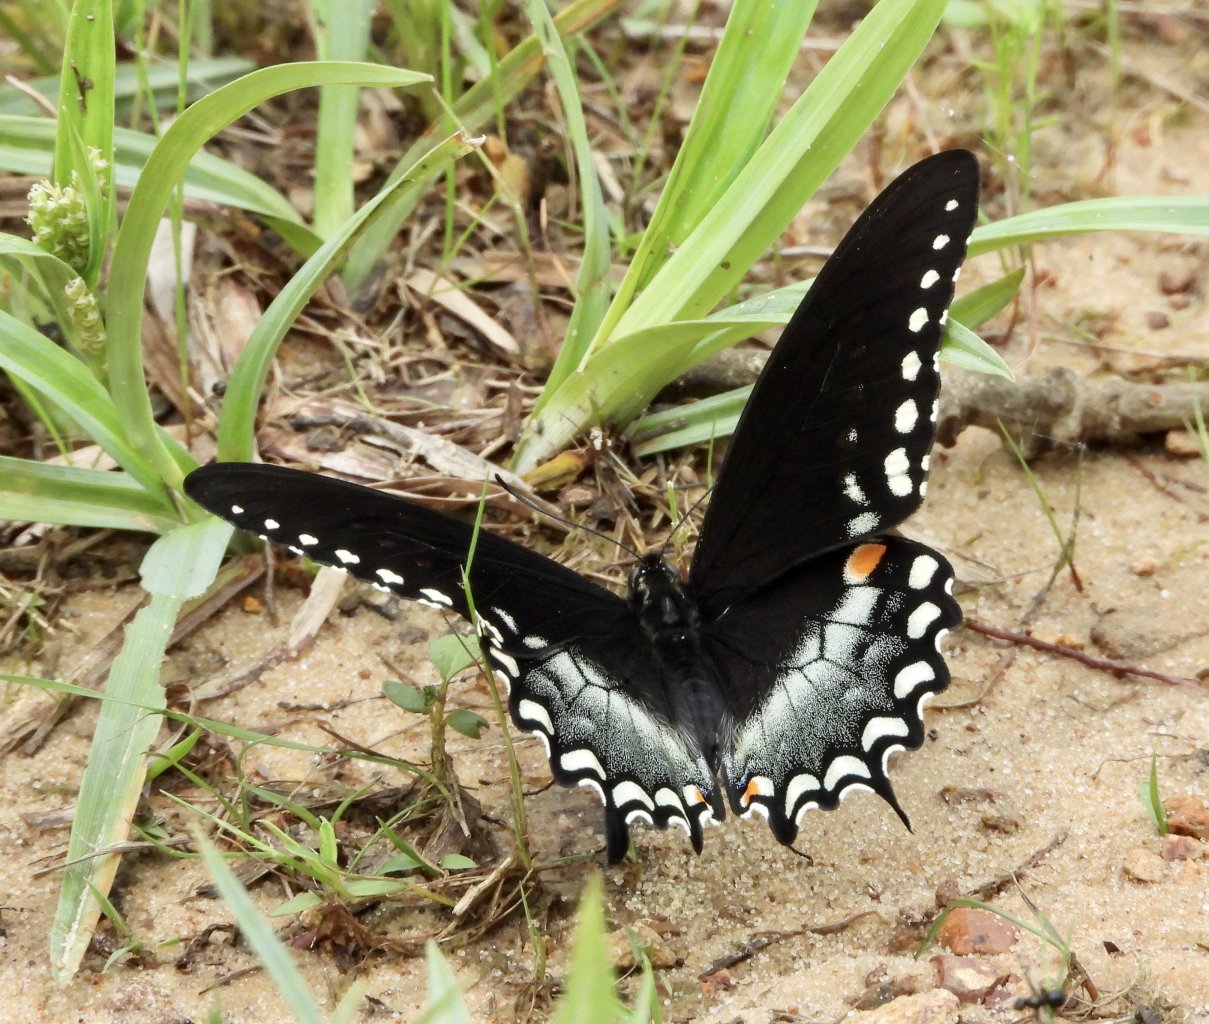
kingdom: Animalia
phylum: Arthropoda
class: Insecta
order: Lepidoptera
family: Papilionidae
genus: Pterourus
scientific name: Pterourus troilus
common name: Spicebush Swallowtail
